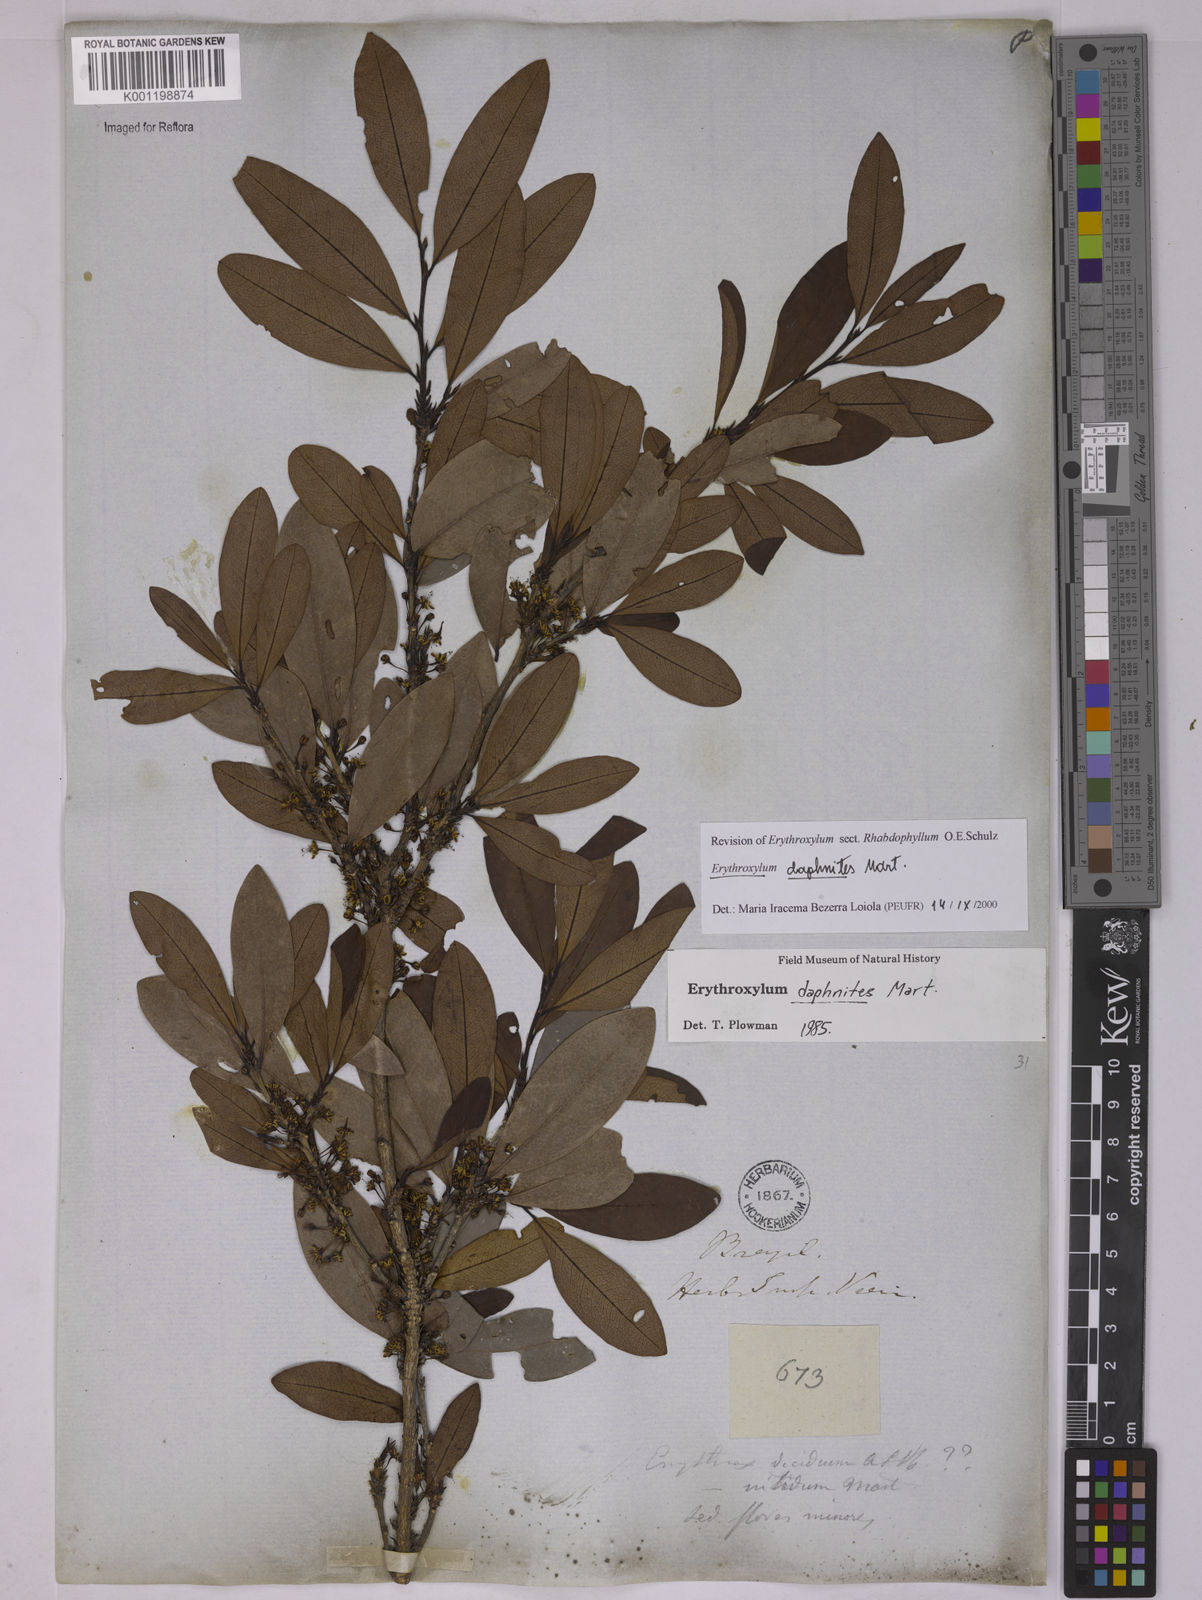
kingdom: Plantae
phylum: Tracheophyta
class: Magnoliopsida
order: Malpighiales
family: Erythroxylaceae
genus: Erythroxylum
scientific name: Erythroxylum daphnites
